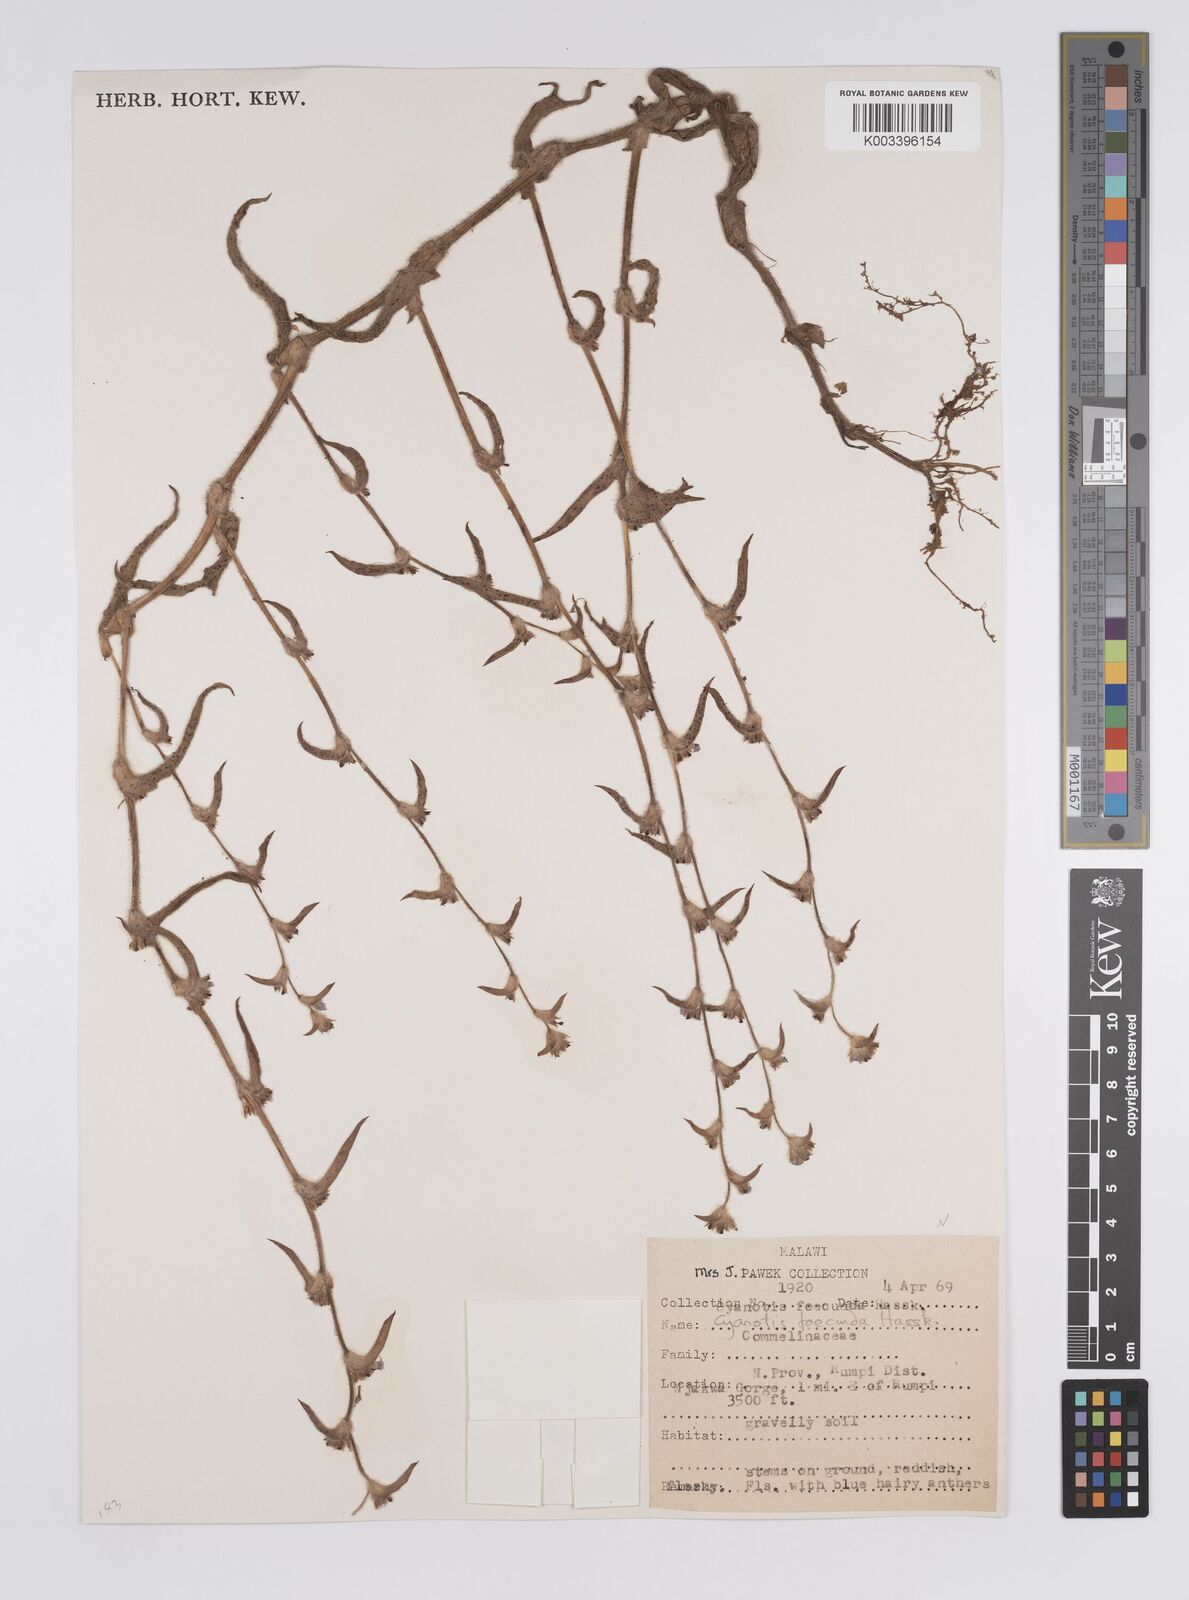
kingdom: Plantae
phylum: Tracheophyta
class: Liliopsida
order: Commelinales
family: Commelinaceae
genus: Cyanotis
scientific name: Cyanotis foecunda
